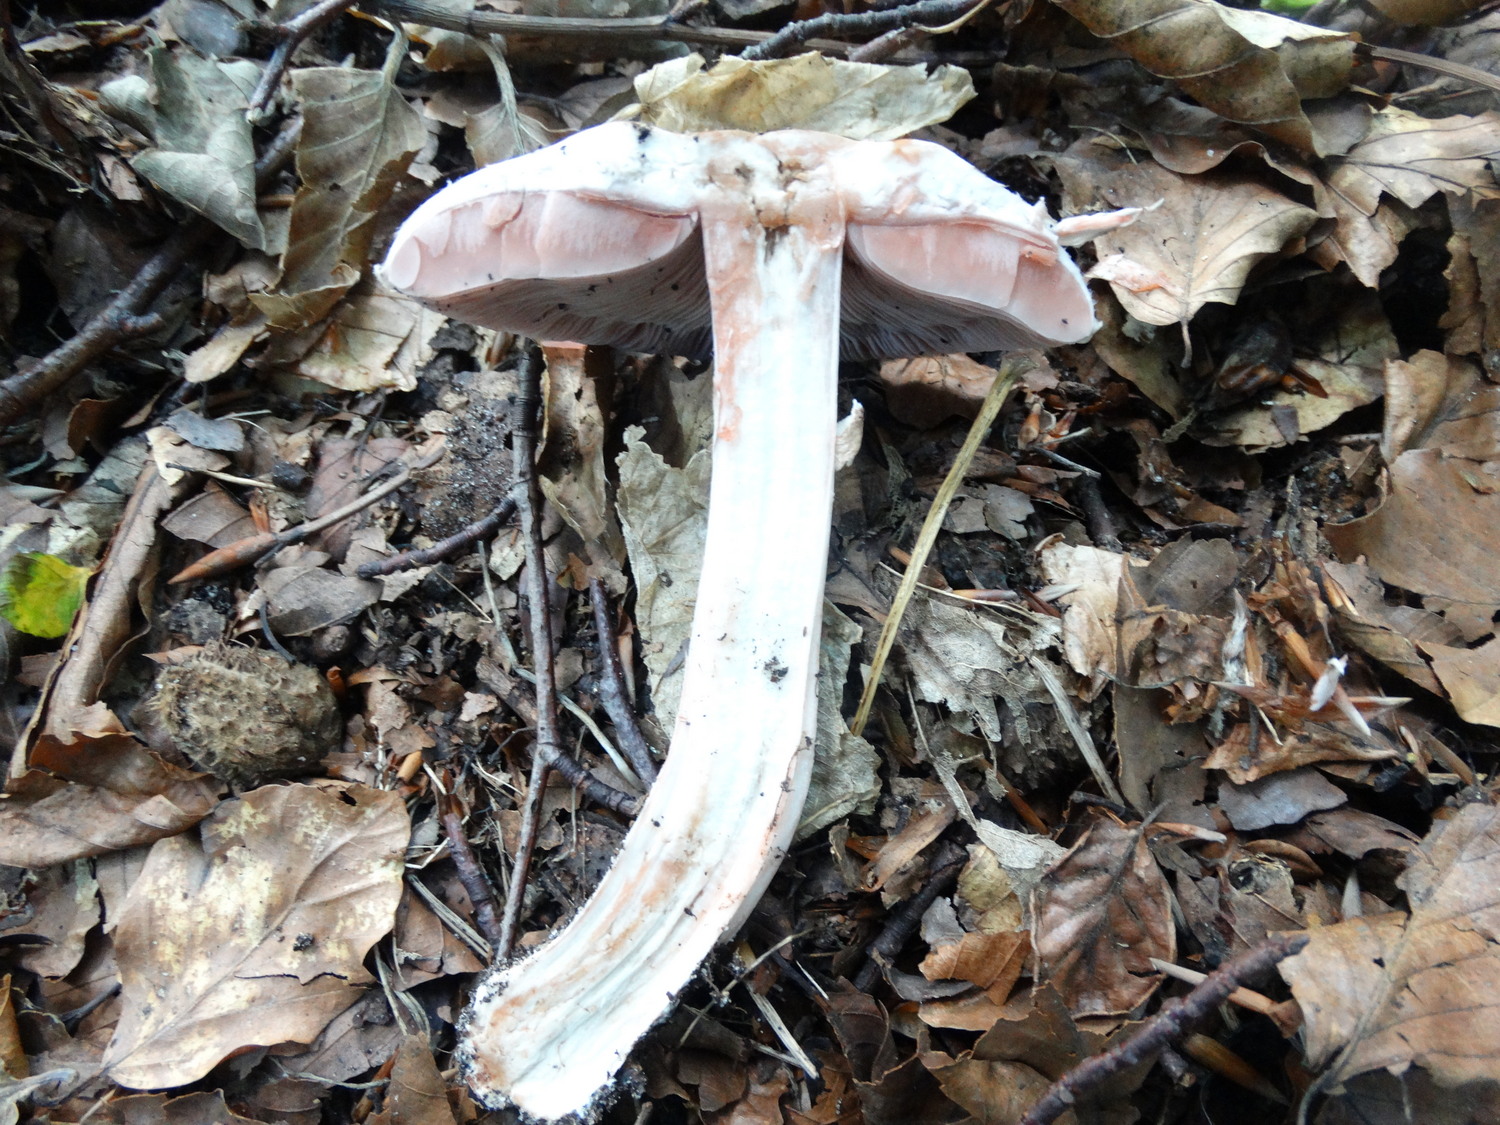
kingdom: Fungi
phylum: Basidiomycota
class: Agaricomycetes
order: Agaricales
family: Agaricaceae
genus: Agaricus
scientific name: Agaricus sylvaticus
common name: lille blod-champignon
